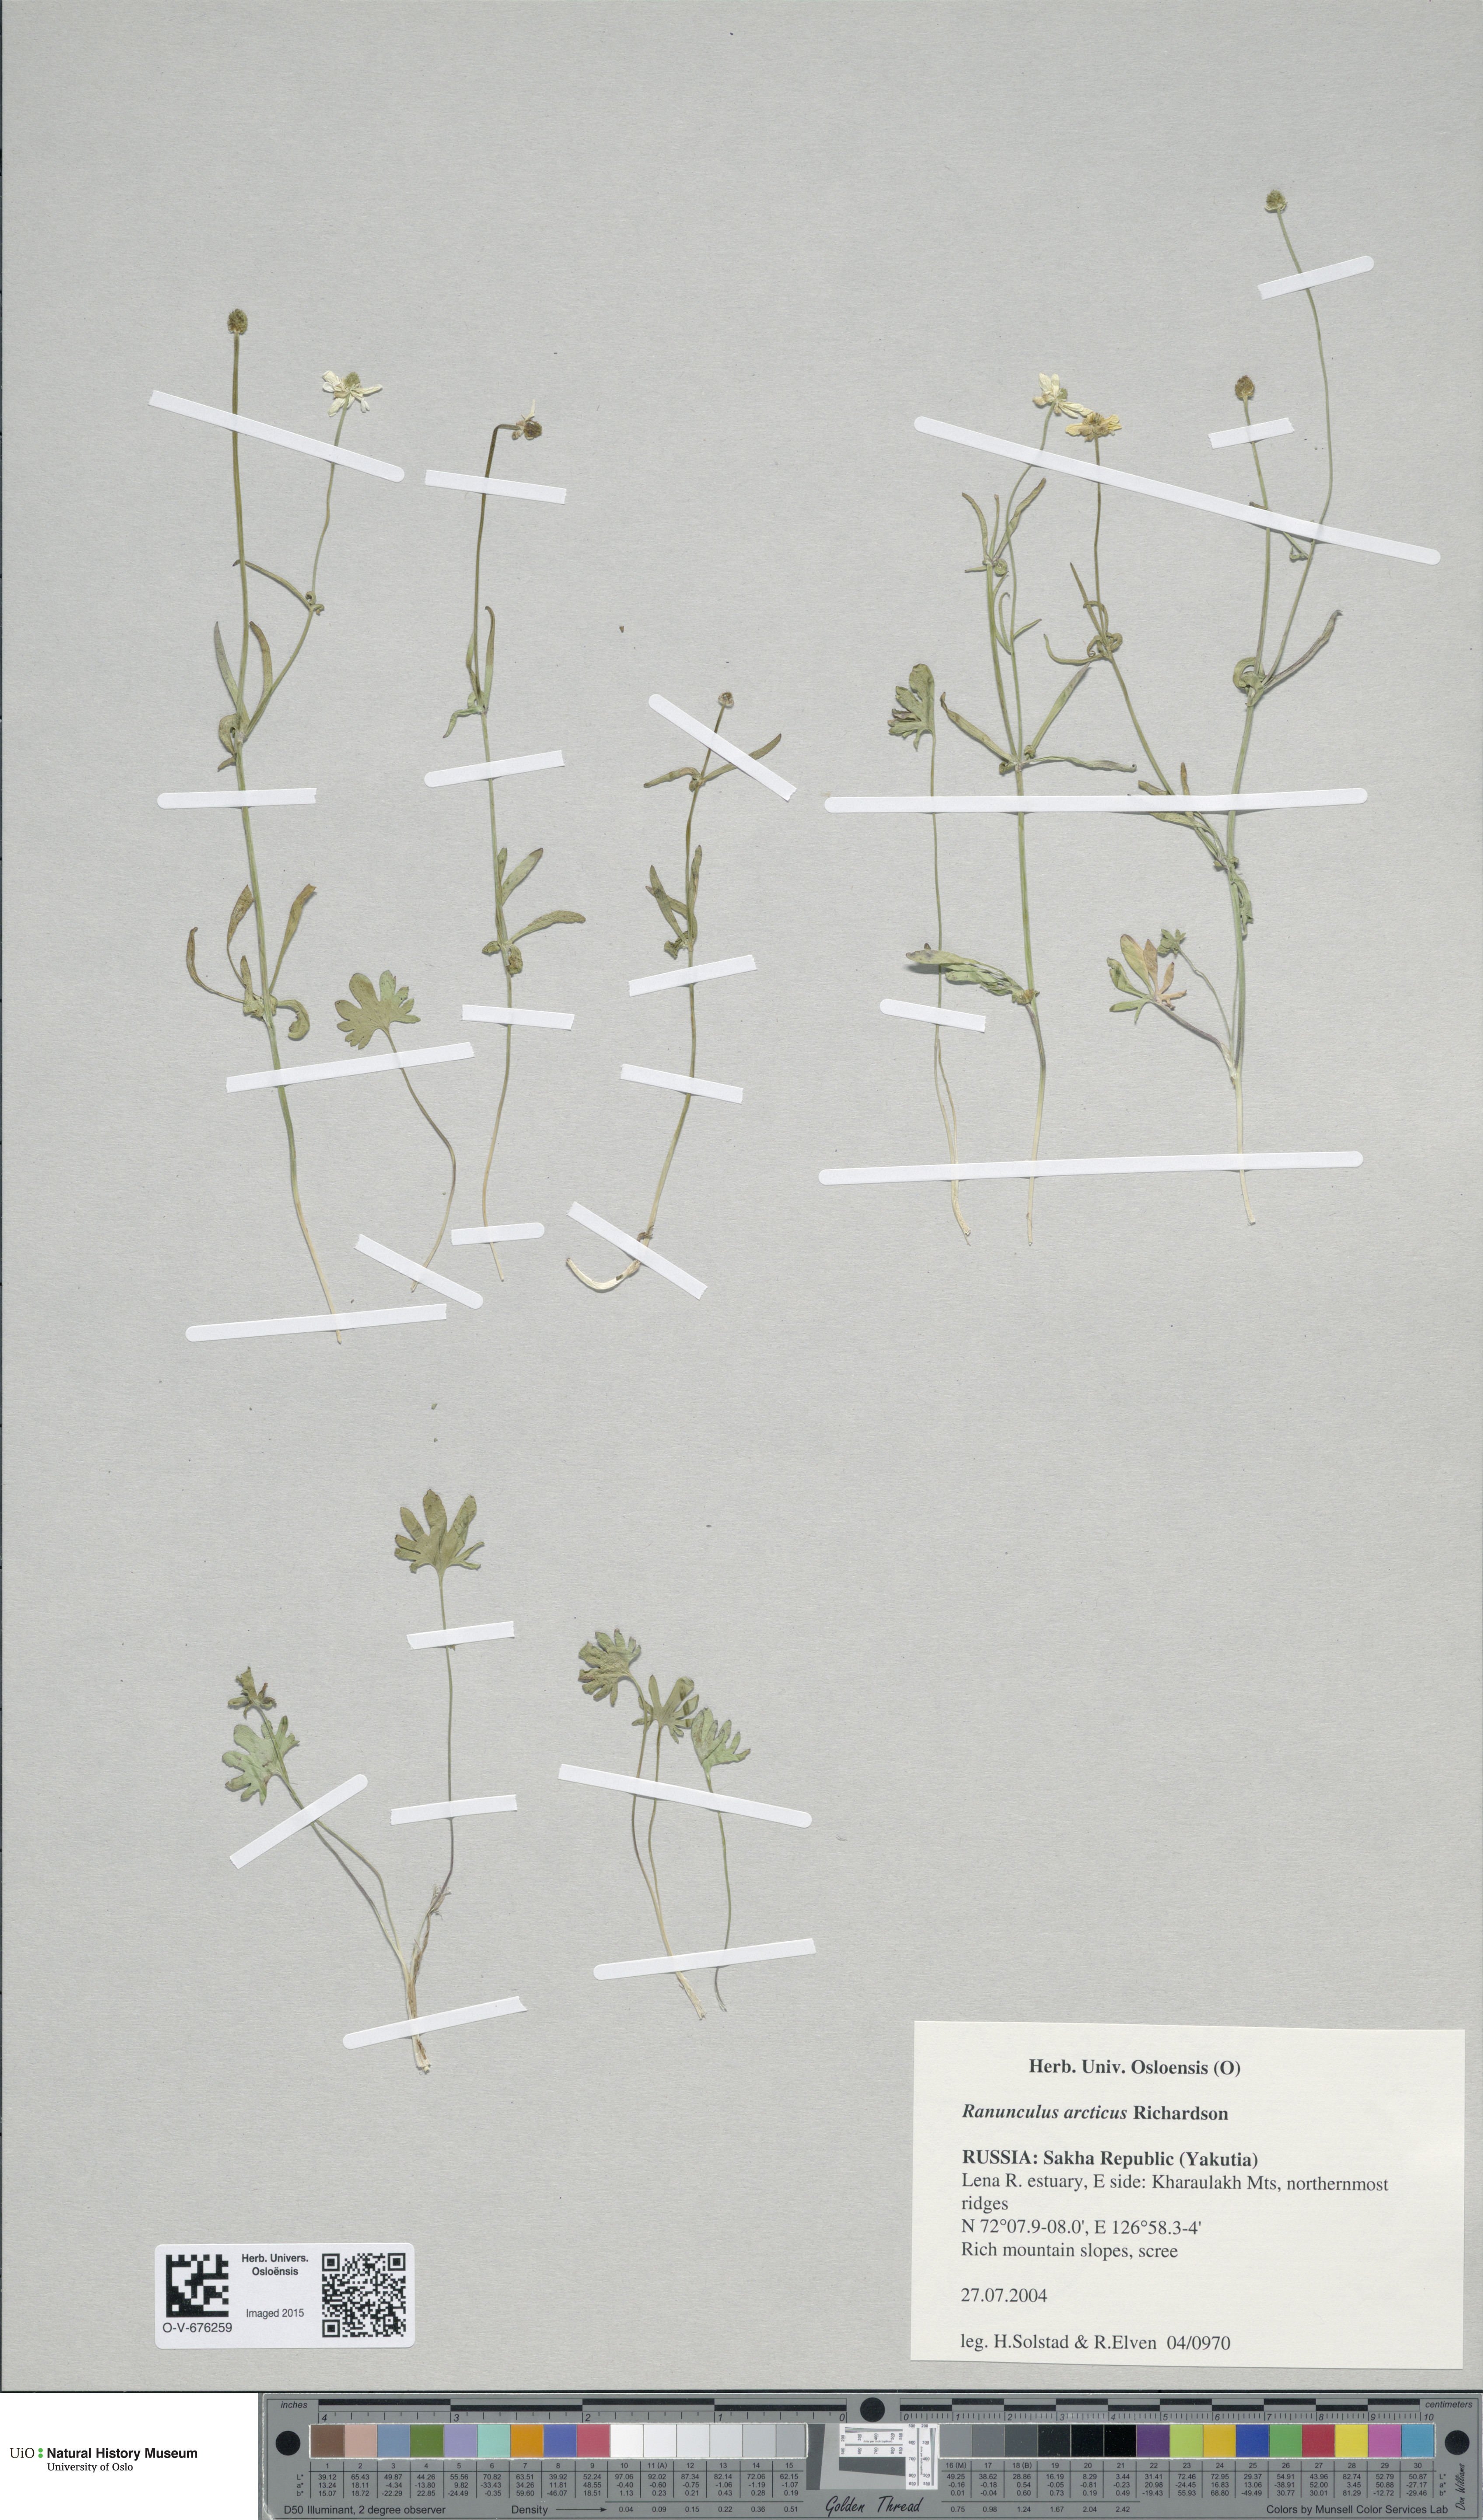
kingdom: Plantae
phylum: Tracheophyta
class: Magnoliopsida
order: Ranunculales
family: Ranunculaceae
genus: Ranunculus
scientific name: Ranunculus arcticus
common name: Bird's-foot buttercup
